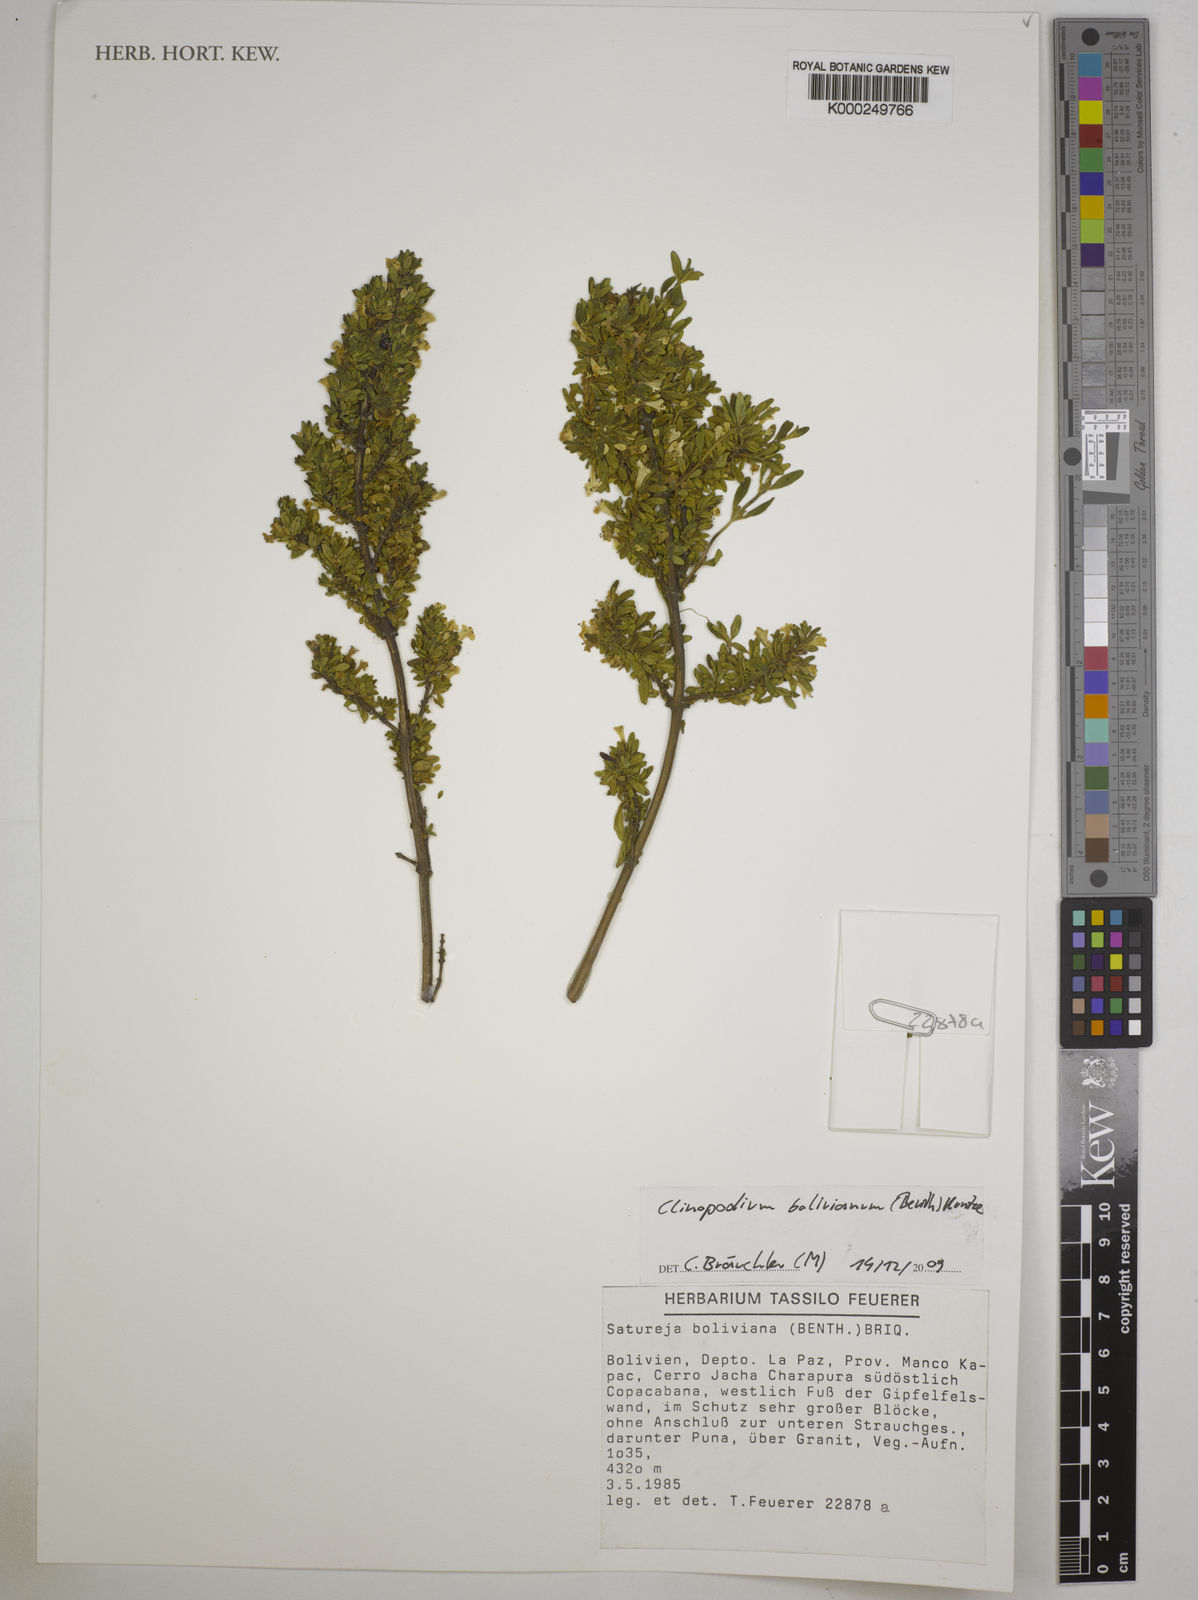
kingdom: Plantae
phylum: Tracheophyta
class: Magnoliopsida
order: Lamiales
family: Lamiaceae
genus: Clinopodium
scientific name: Clinopodium bolivianum
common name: Inca muña
